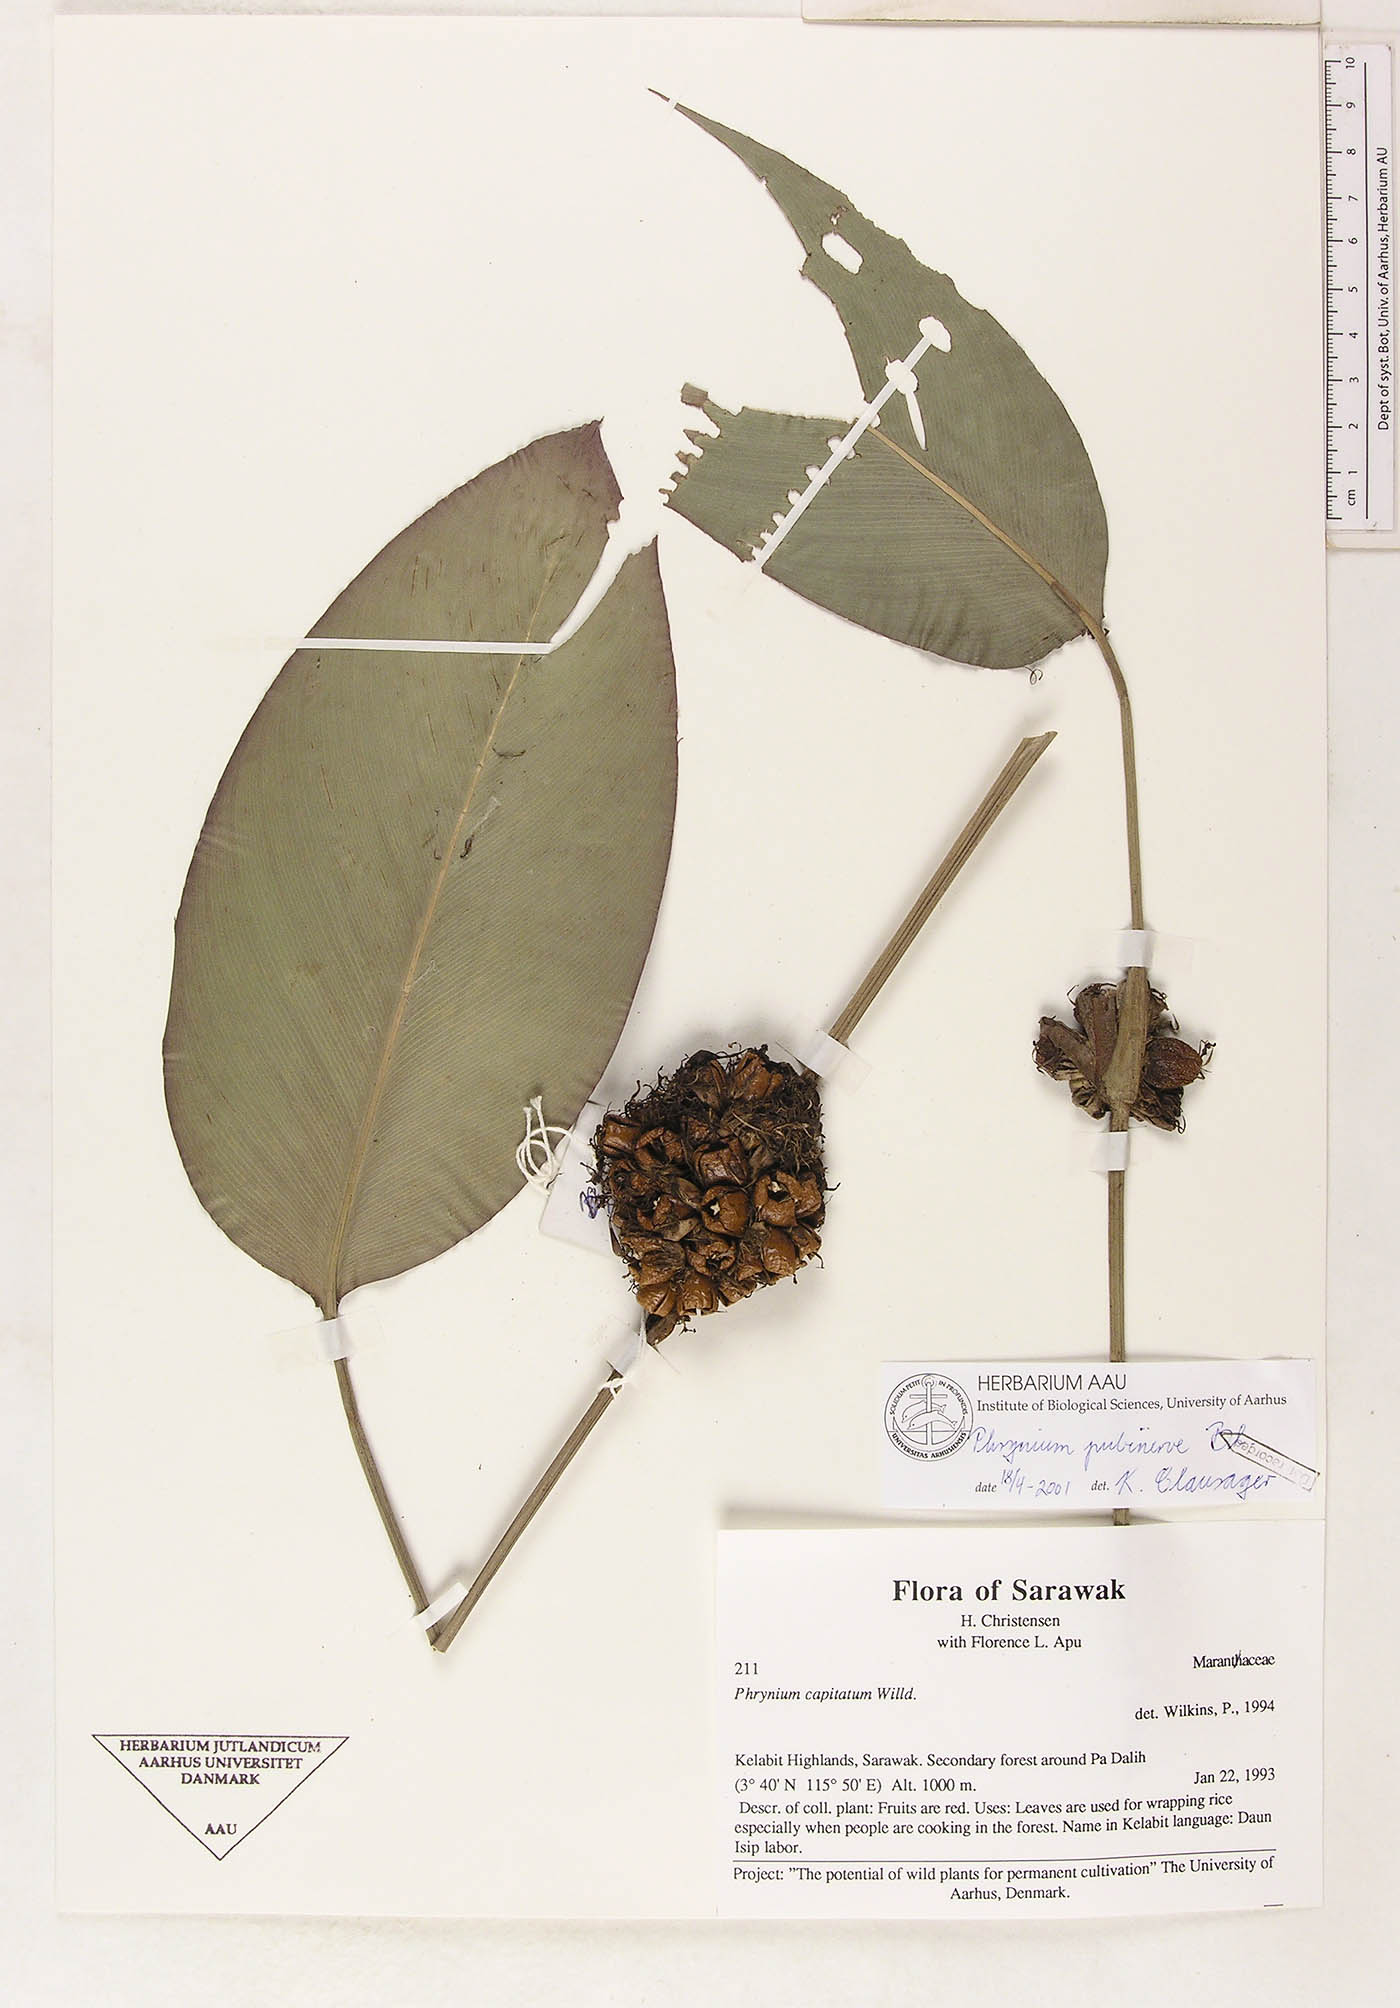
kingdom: Plantae
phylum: Tracheophyta
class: Liliopsida
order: Zingiberales
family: Marantaceae
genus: Phrynium
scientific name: Phrynium pubinerve
